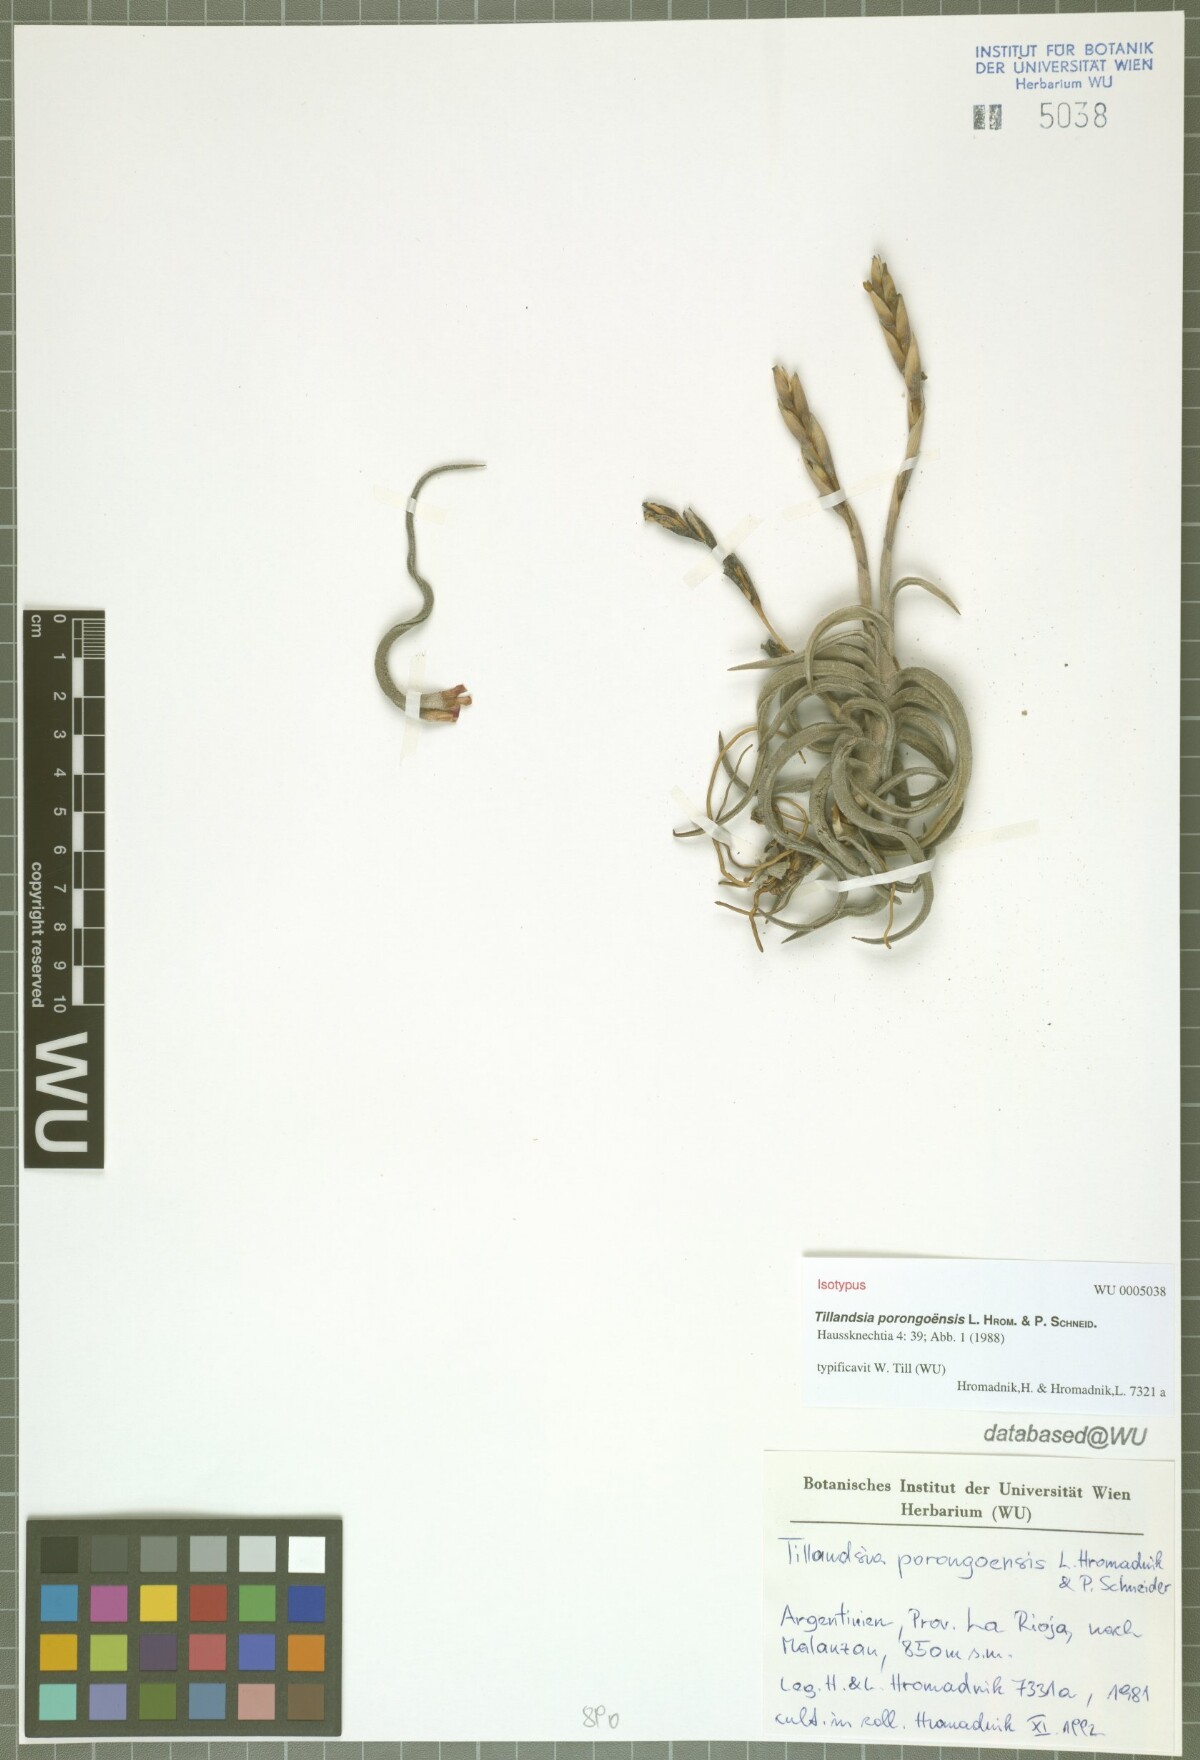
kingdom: Plantae
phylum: Tracheophyta
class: Liliopsida
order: Poales
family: Bromeliaceae
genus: Tillandsia
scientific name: Tillandsia porongoensis
